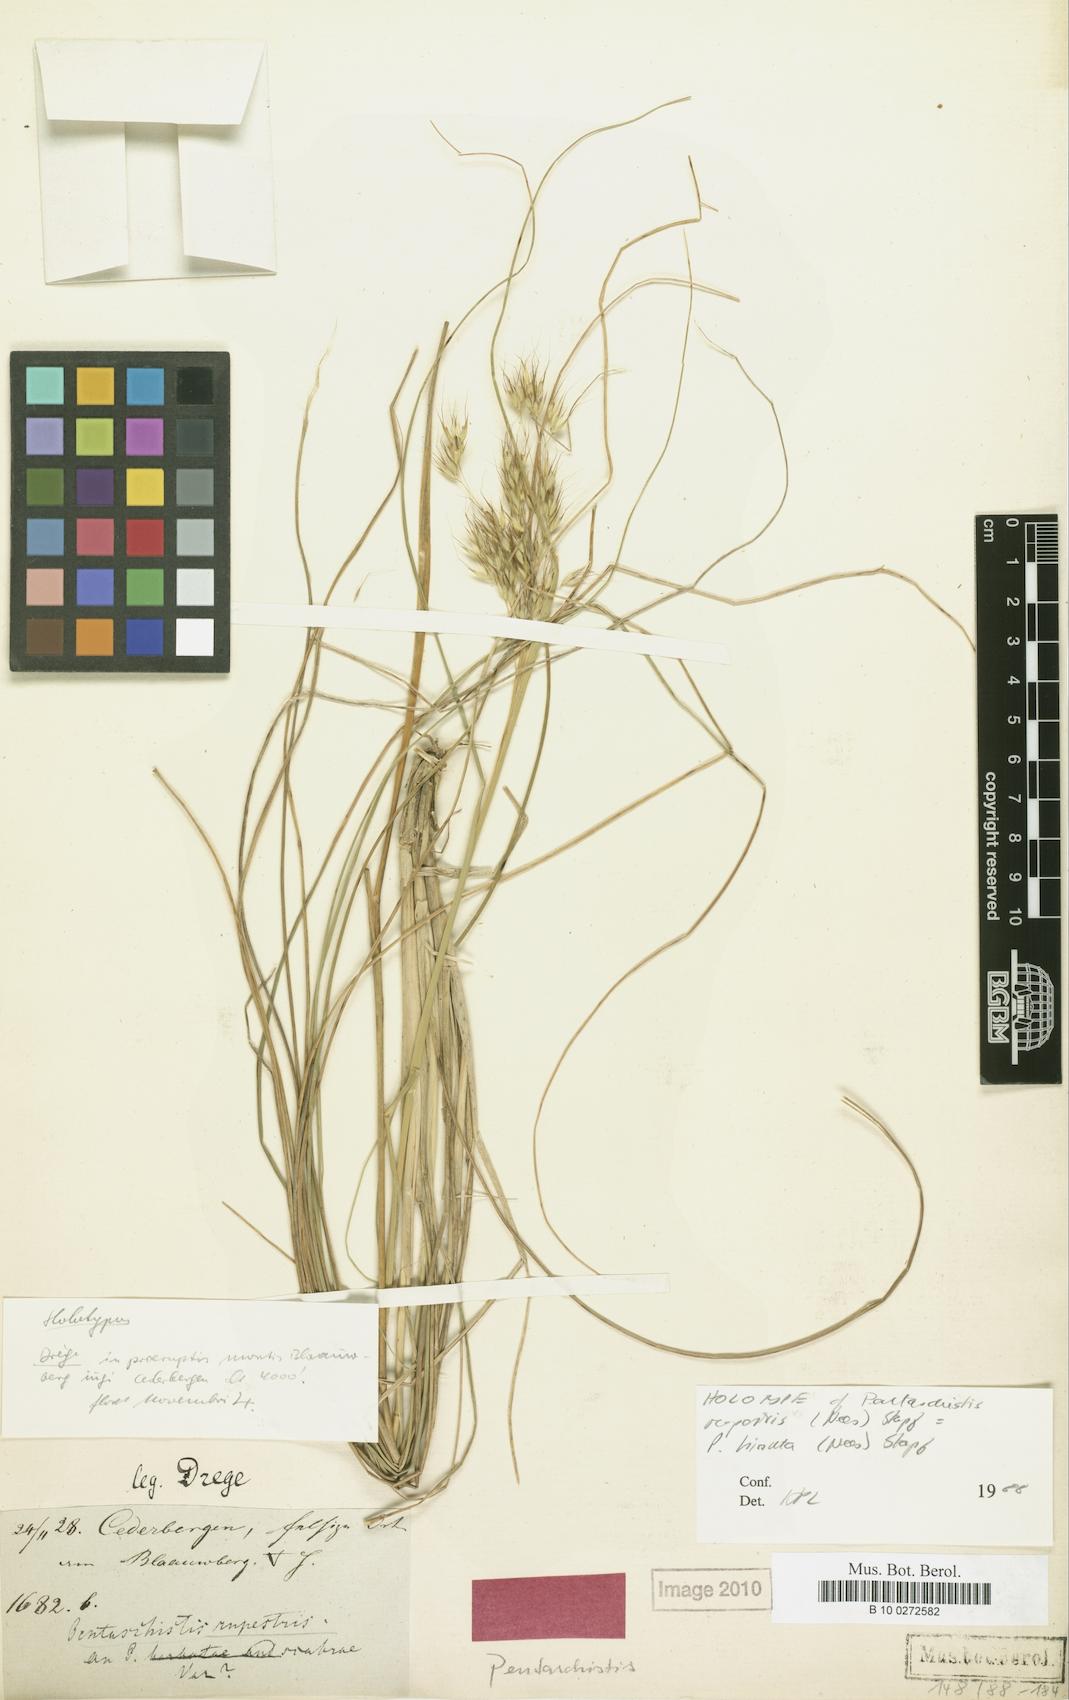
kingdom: Plantae
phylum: Tracheophyta
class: Liliopsida
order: Poales
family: Poaceae
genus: Pentameris
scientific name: Pentameris rupestris
